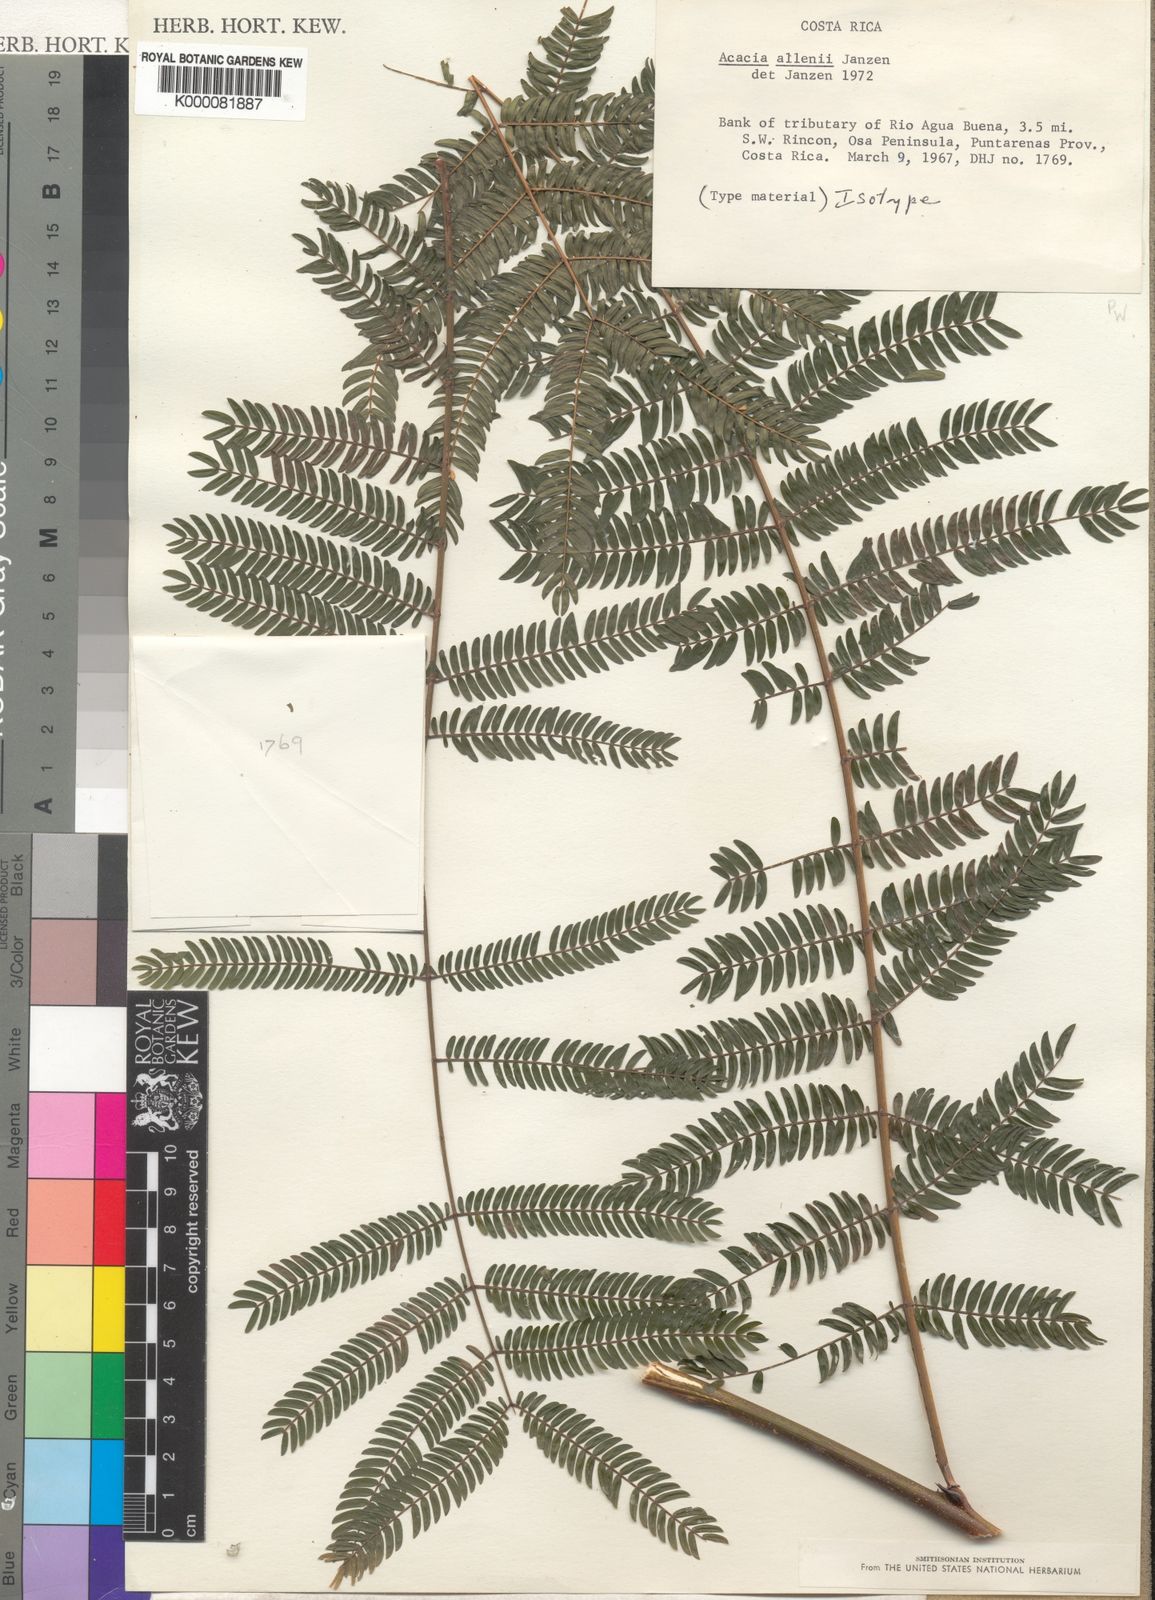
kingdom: Plantae
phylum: Tracheophyta
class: Magnoliopsida
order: Fabales
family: Fabaceae
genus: Vachellia
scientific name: Vachellia allenii
